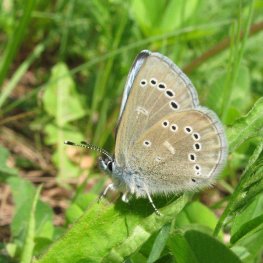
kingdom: Animalia
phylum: Arthropoda
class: Insecta
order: Lepidoptera
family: Lycaenidae
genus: Glaucopsyche
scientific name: Glaucopsyche lygdamus
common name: Silvery Blue
